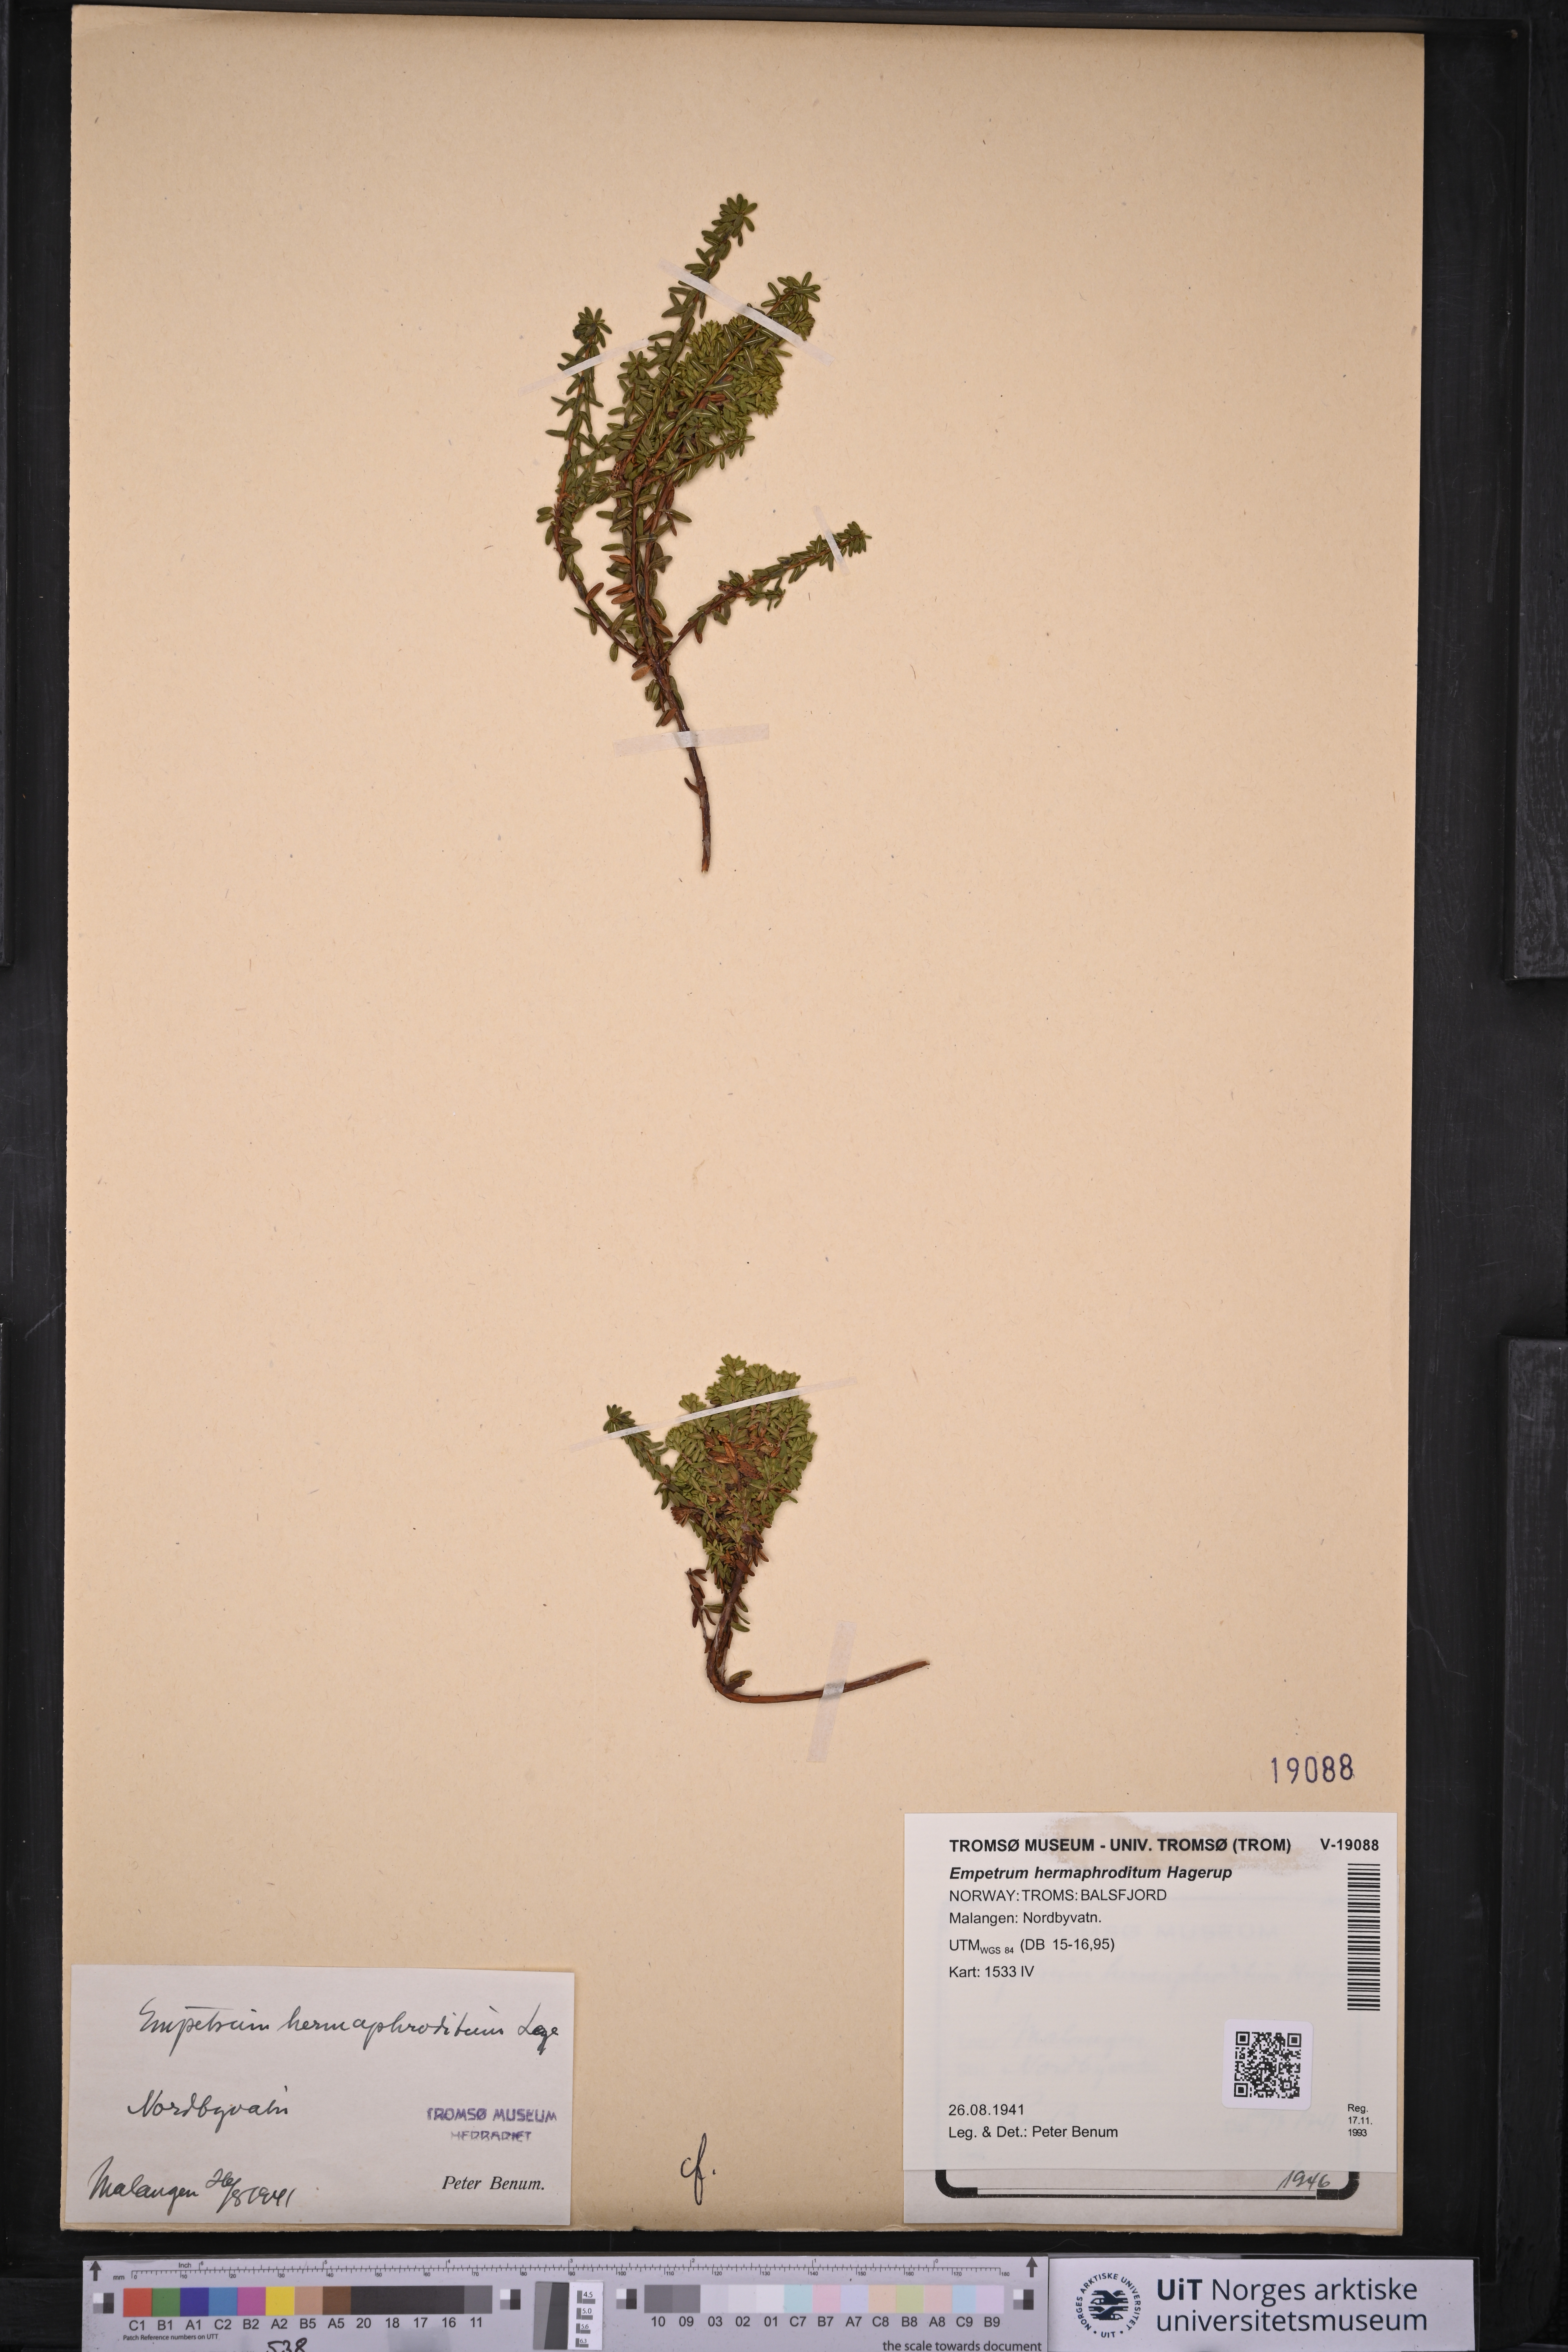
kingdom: Plantae
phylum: Tracheophyta
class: Magnoliopsida
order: Ericales
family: Ericaceae
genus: Empetrum
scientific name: Empetrum hermaphroditum
